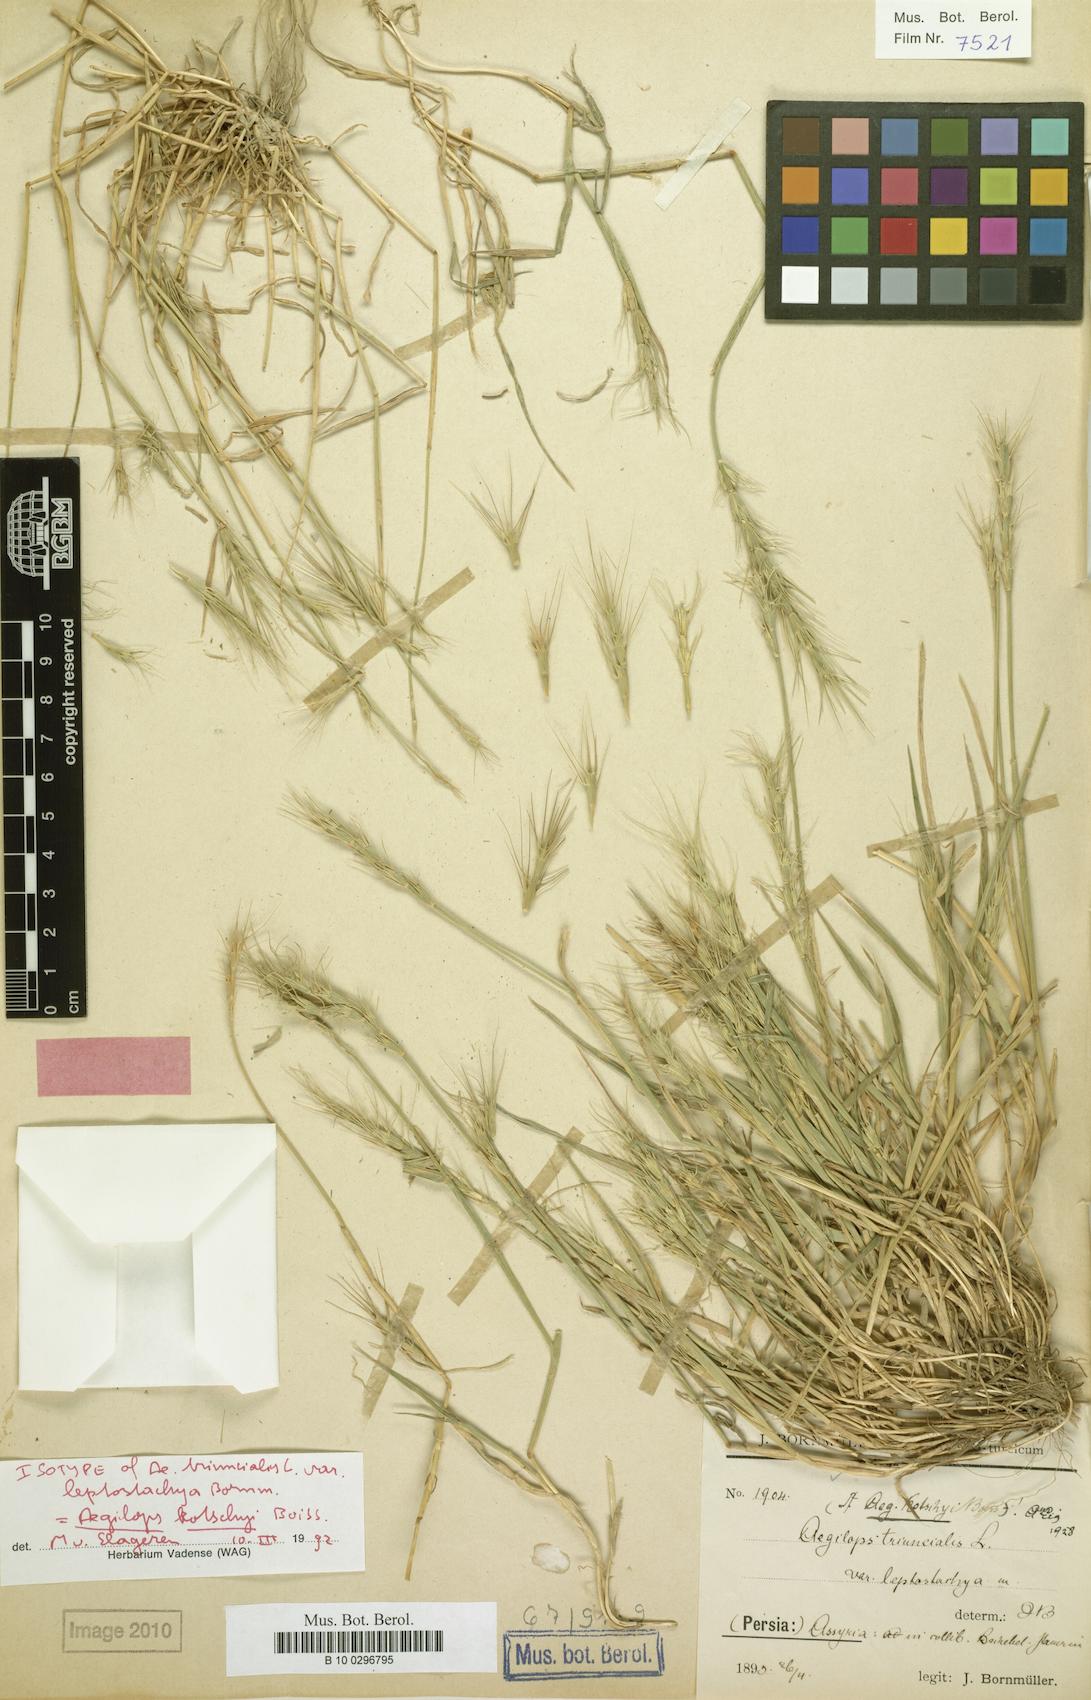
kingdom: Plantae
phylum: Tracheophyta
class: Liliopsida
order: Poales
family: Poaceae
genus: Aegilops
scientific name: Aegilops kotschyi
